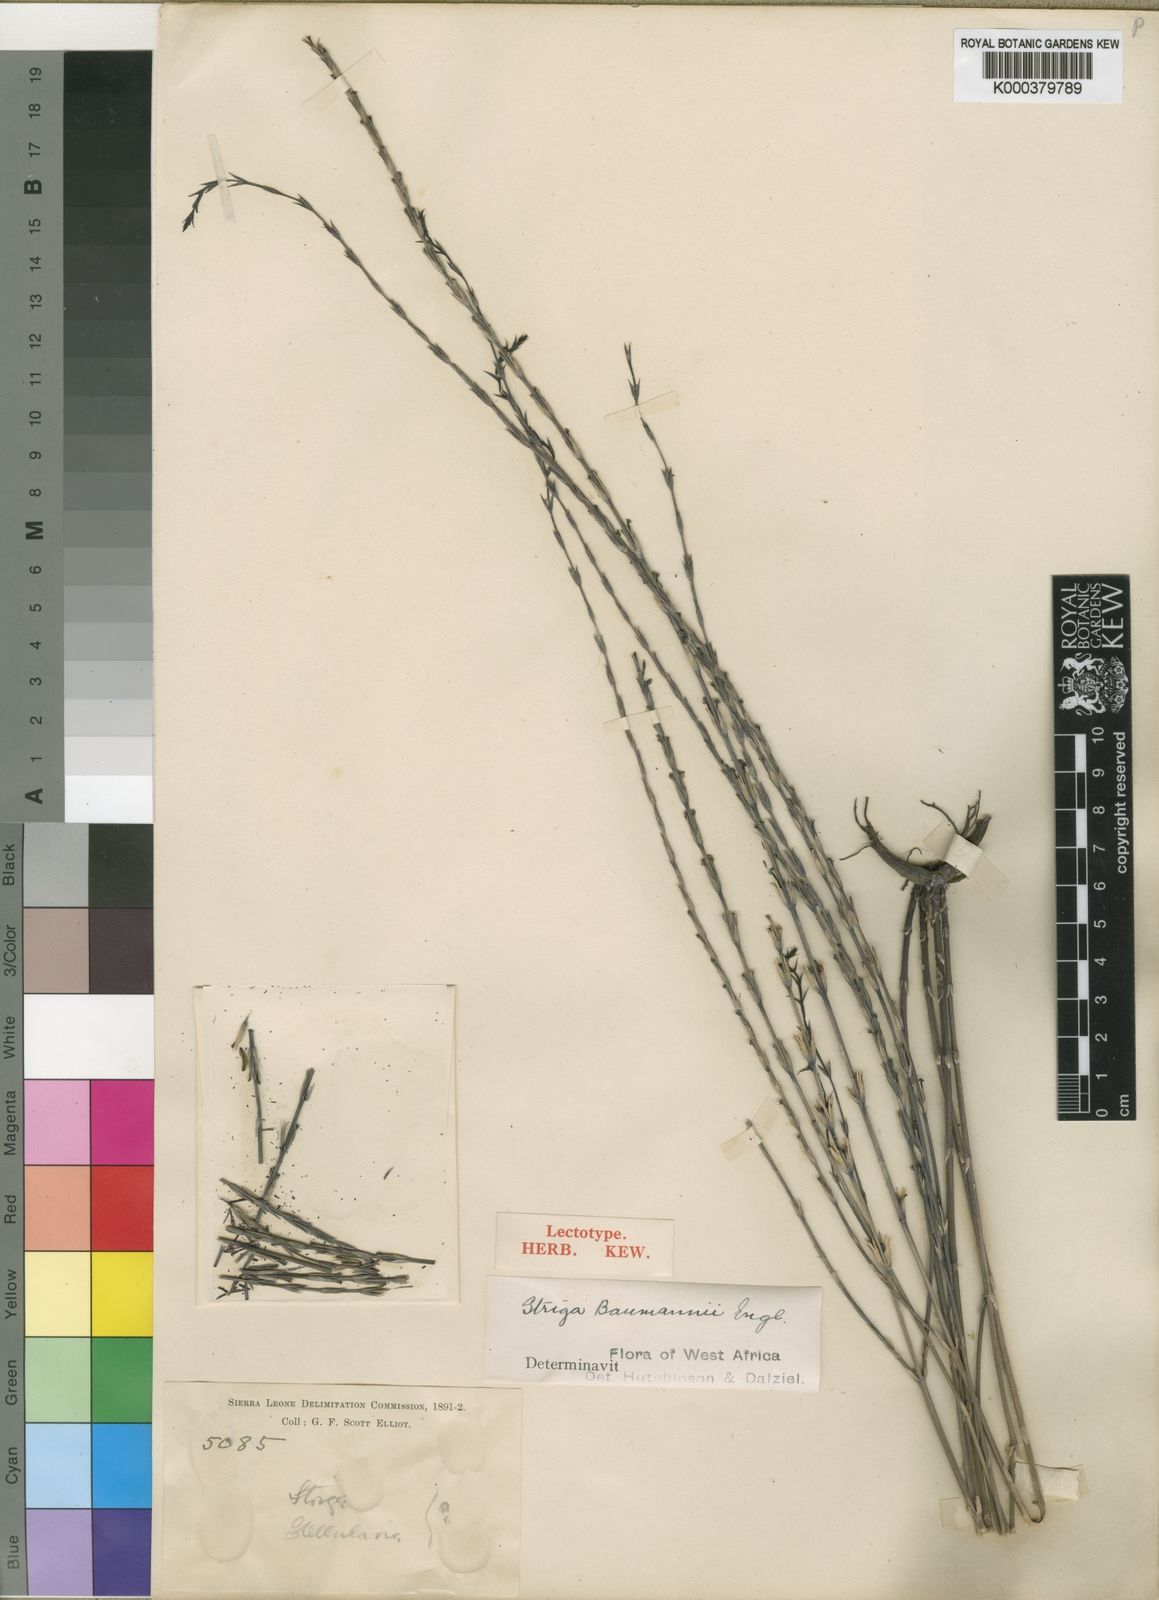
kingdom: Plantae
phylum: Tracheophyta
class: Magnoliopsida
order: Lamiales
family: Orobanchaceae
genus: Striga
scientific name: Striga baumannii
